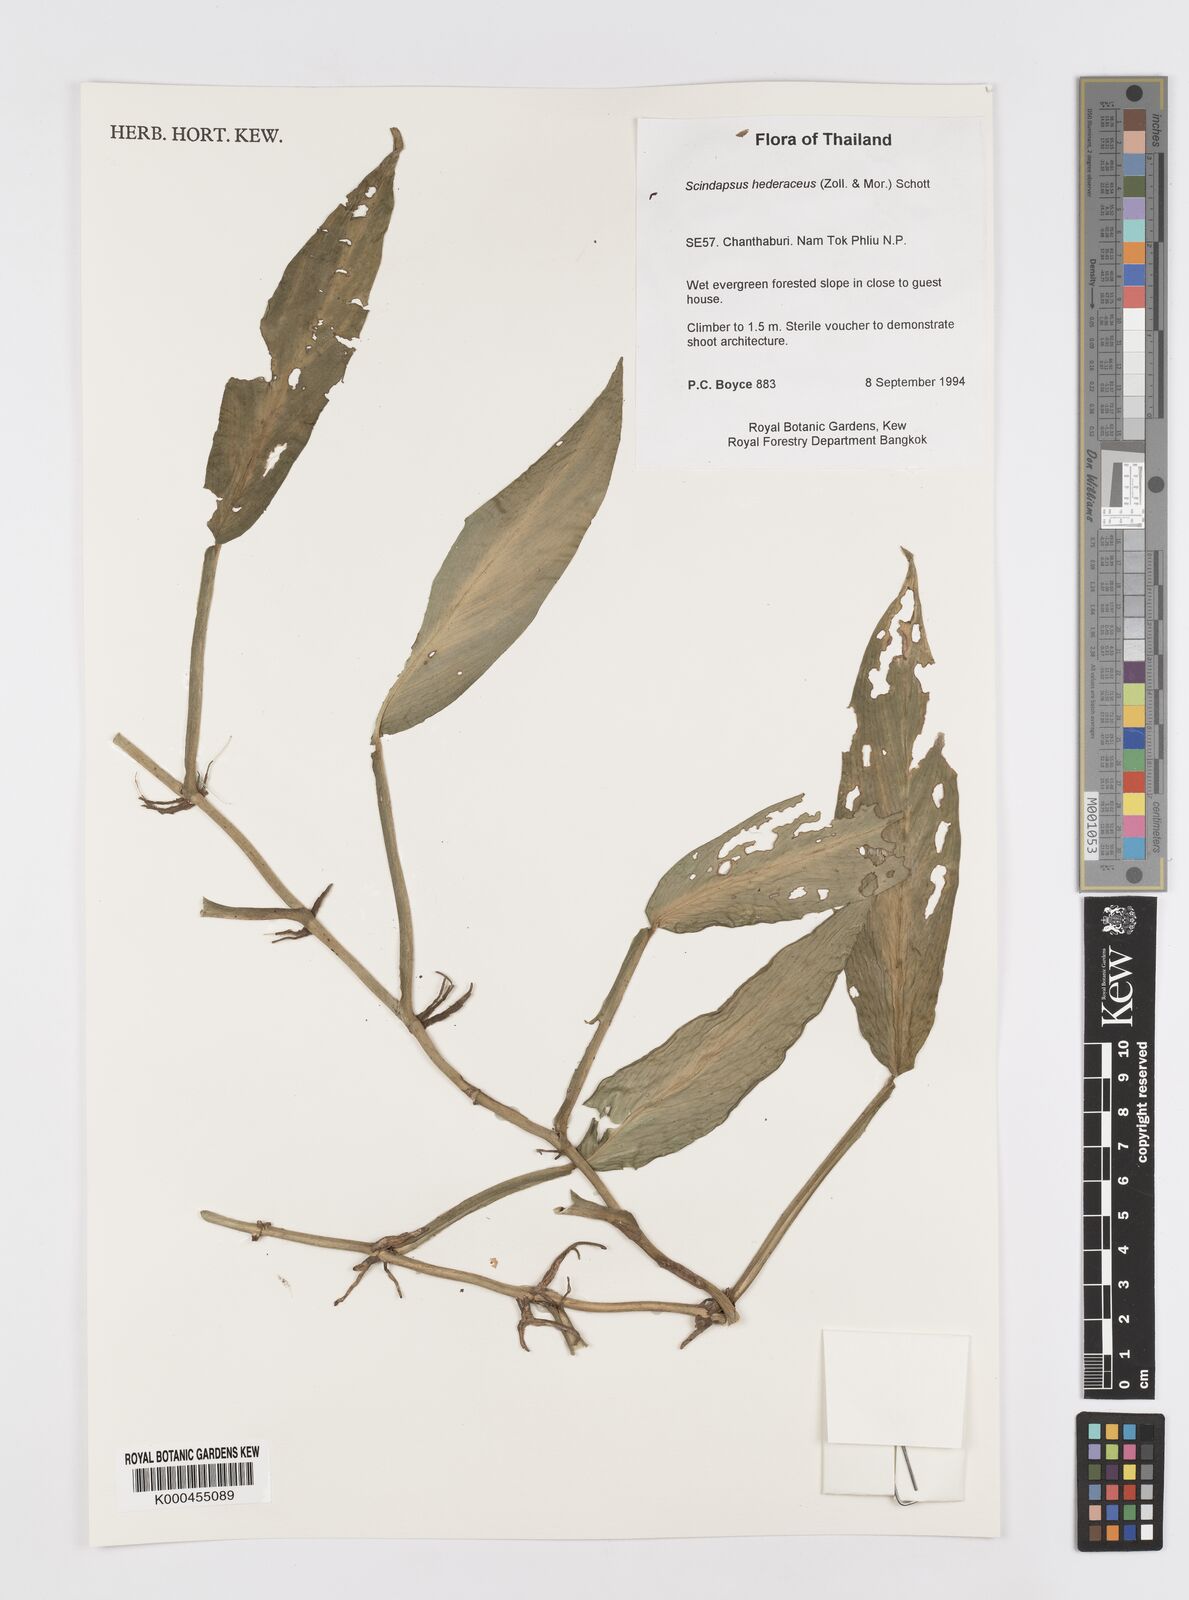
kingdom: Plantae
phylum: Tracheophyta
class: Liliopsida
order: Alismatales
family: Araceae
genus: Scindapsus
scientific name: Scindapsus hederaceus
